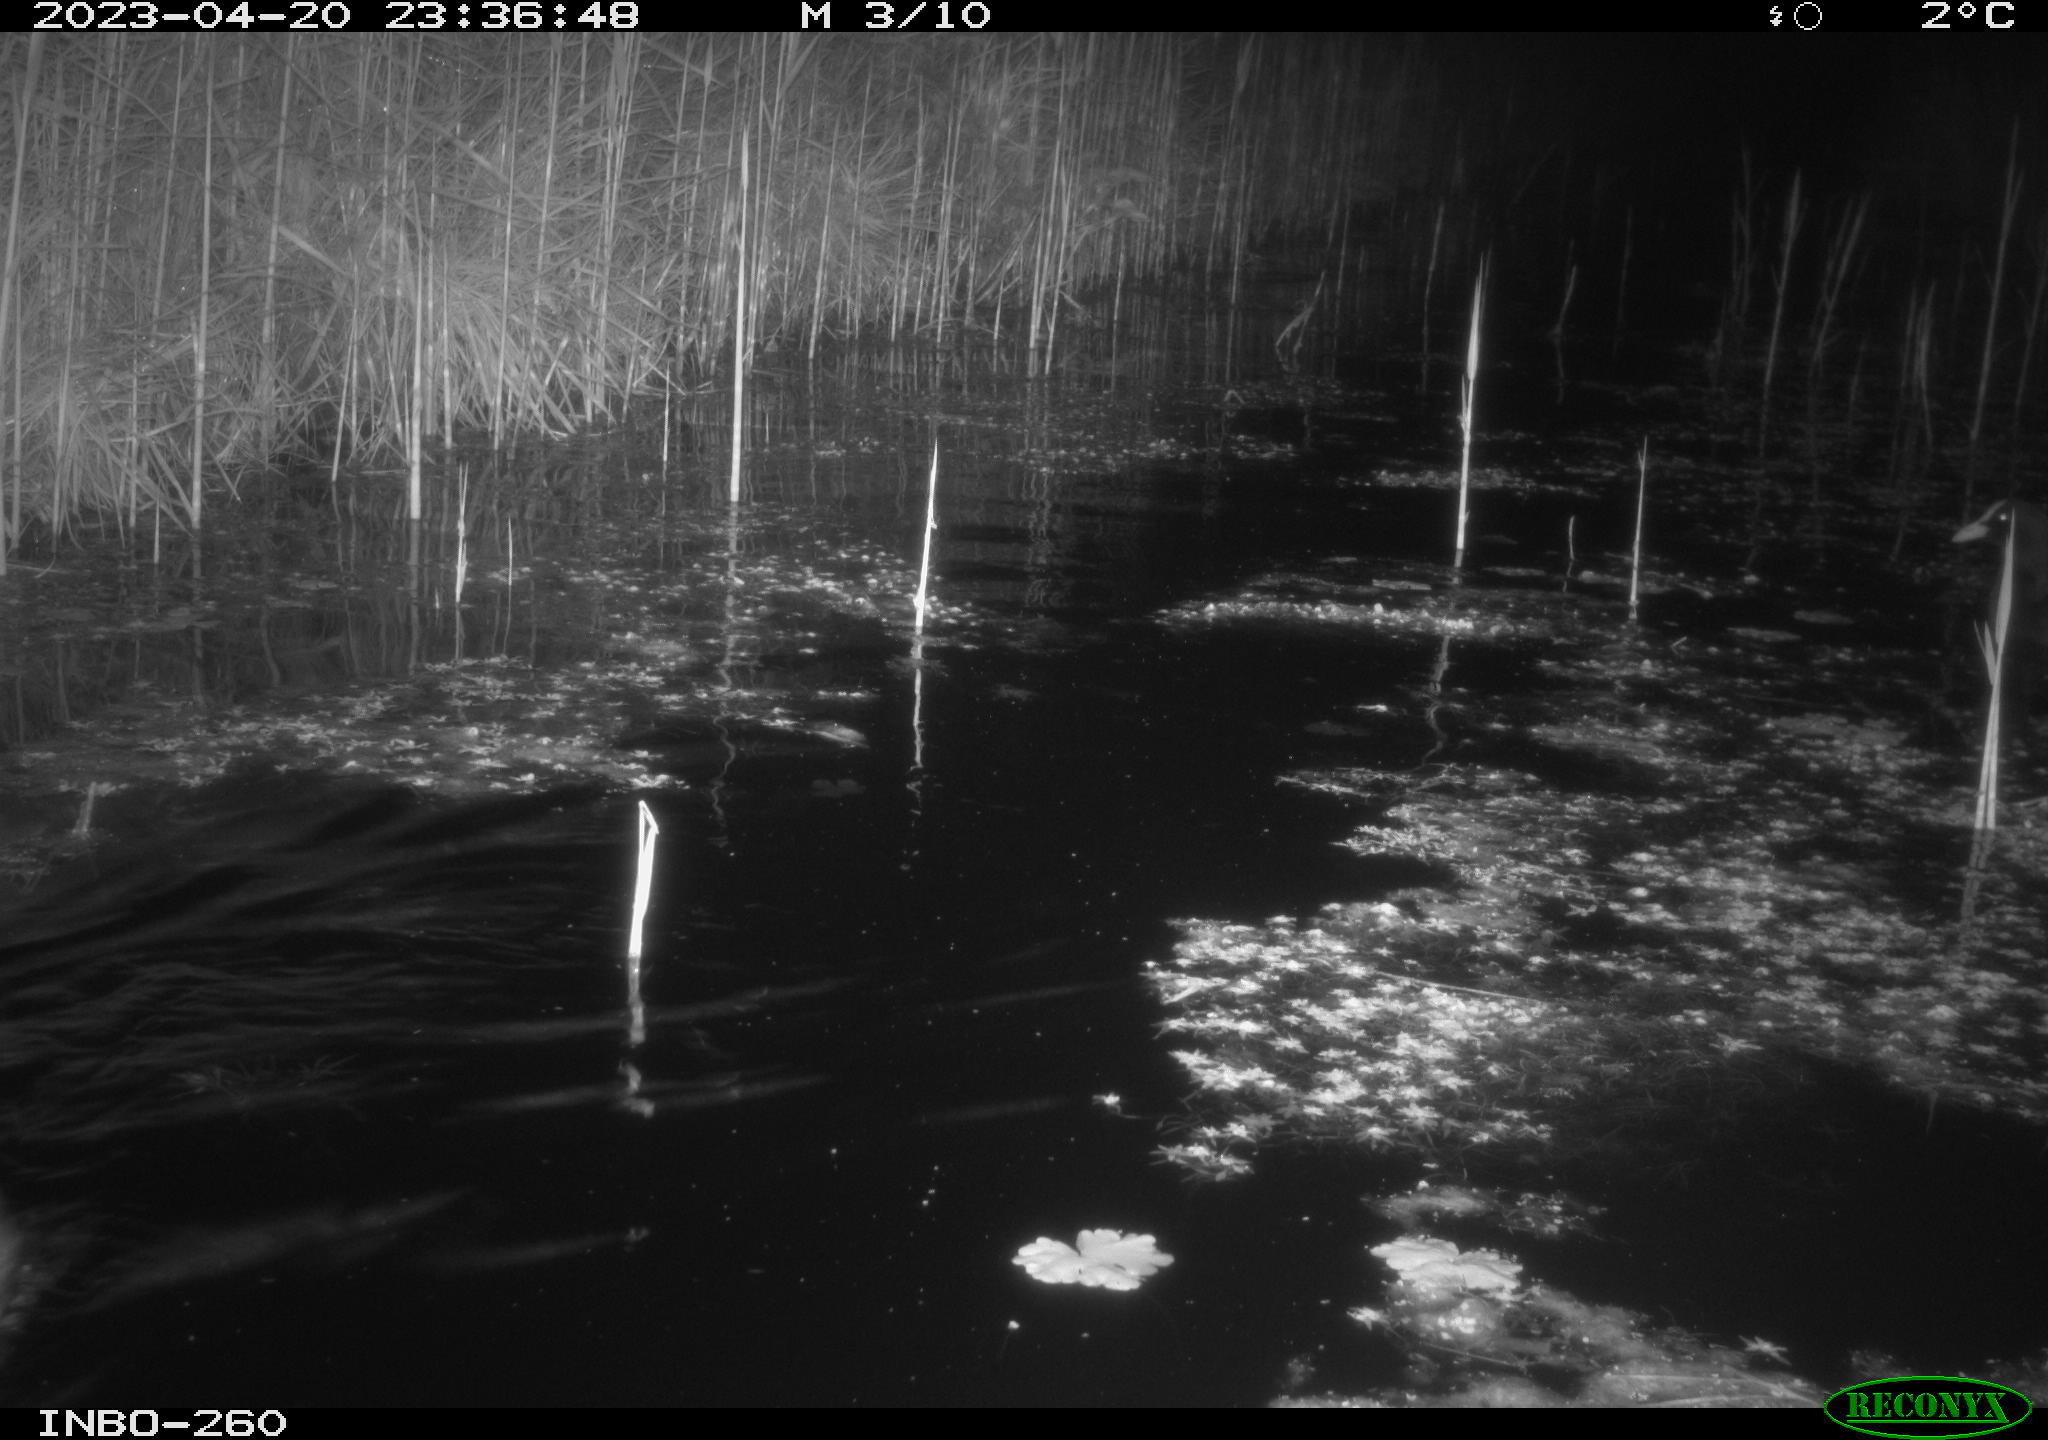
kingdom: Animalia
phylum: Chordata
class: Mammalia
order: Rodentia
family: Cricetidae
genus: Ondatra
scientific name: Ondatra zibethicus
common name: Muskrat
